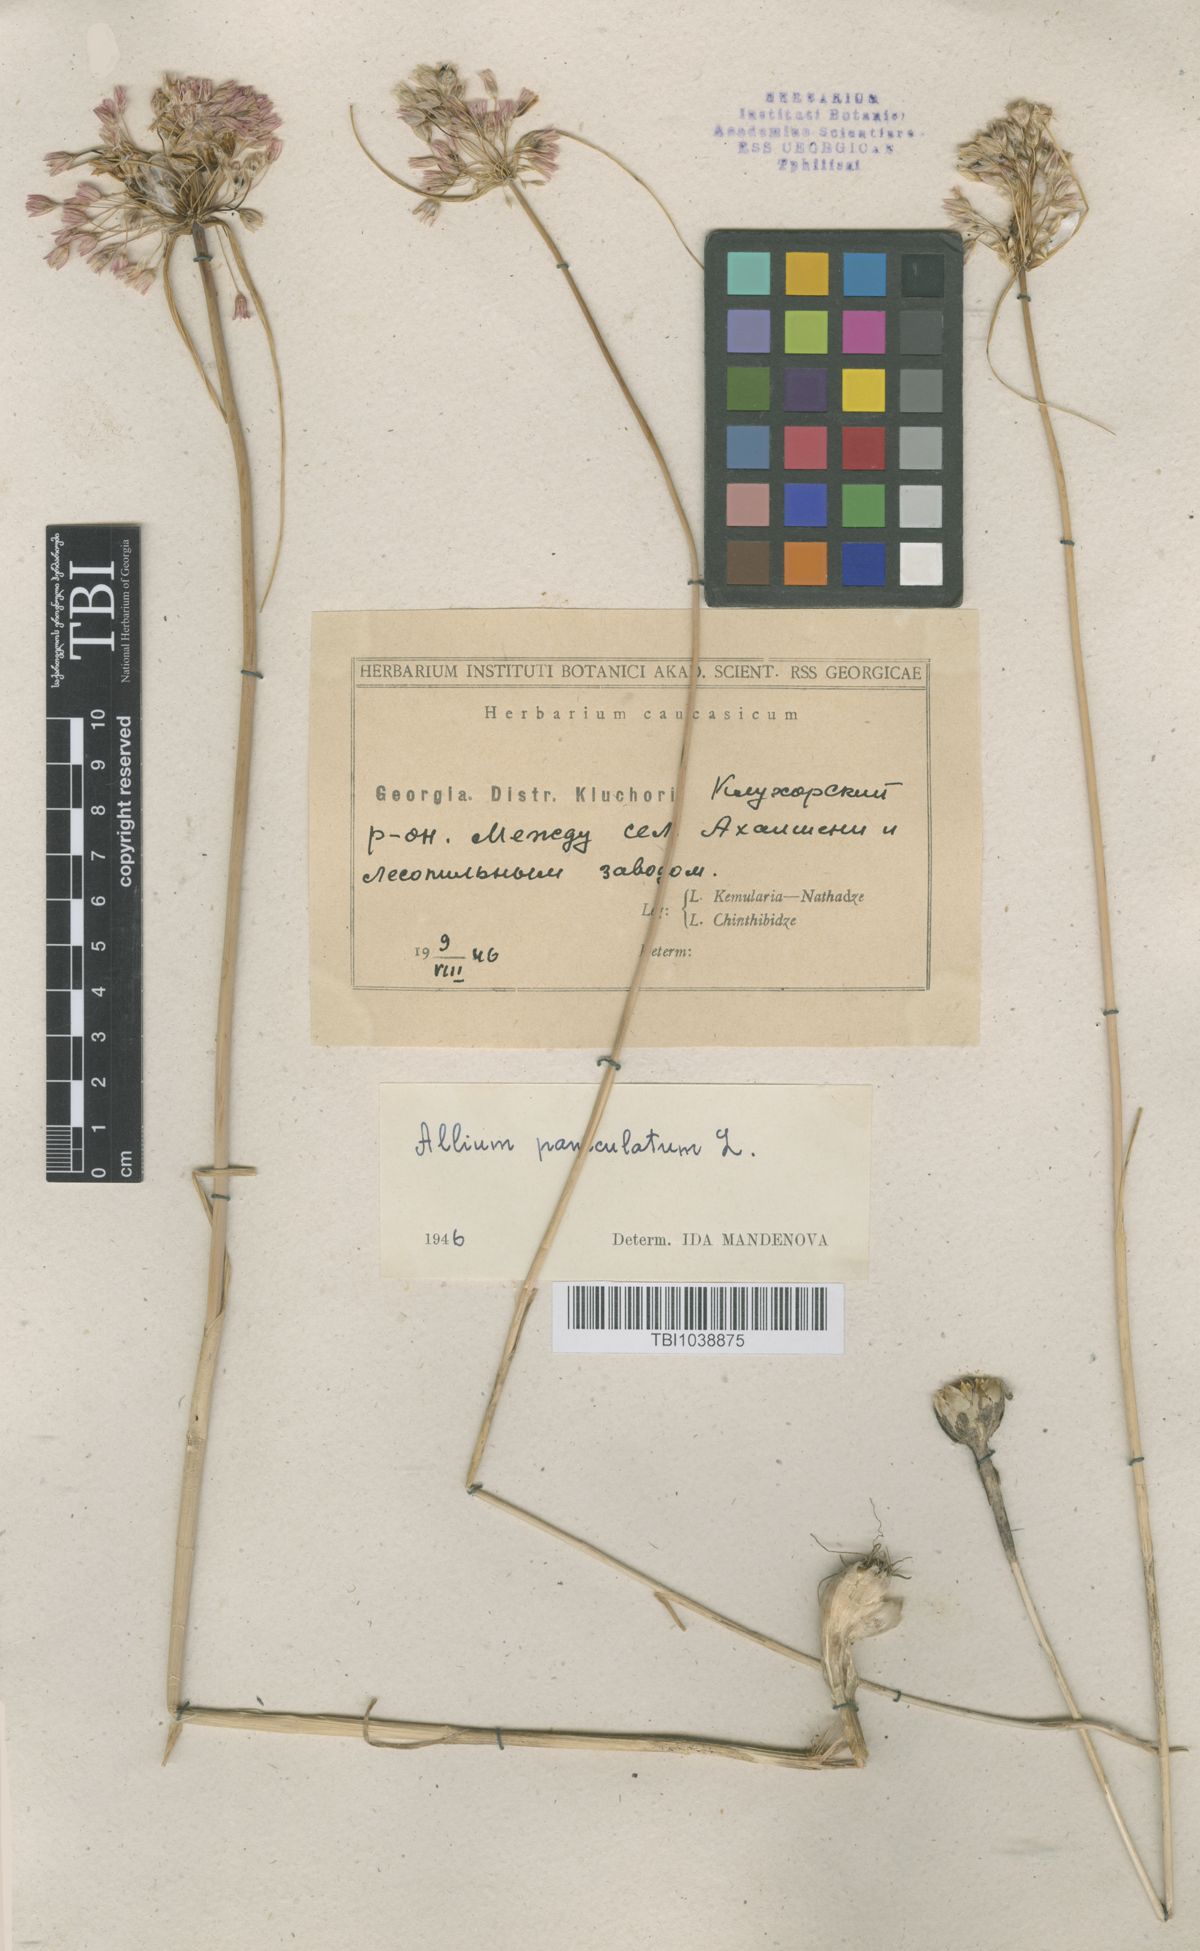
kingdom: Plantae
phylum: Tracheophyta
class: Liliopsida
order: Asparagales
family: Amaryllidaceae
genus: Allium
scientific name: Allium paniculatum
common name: Pale garlic
